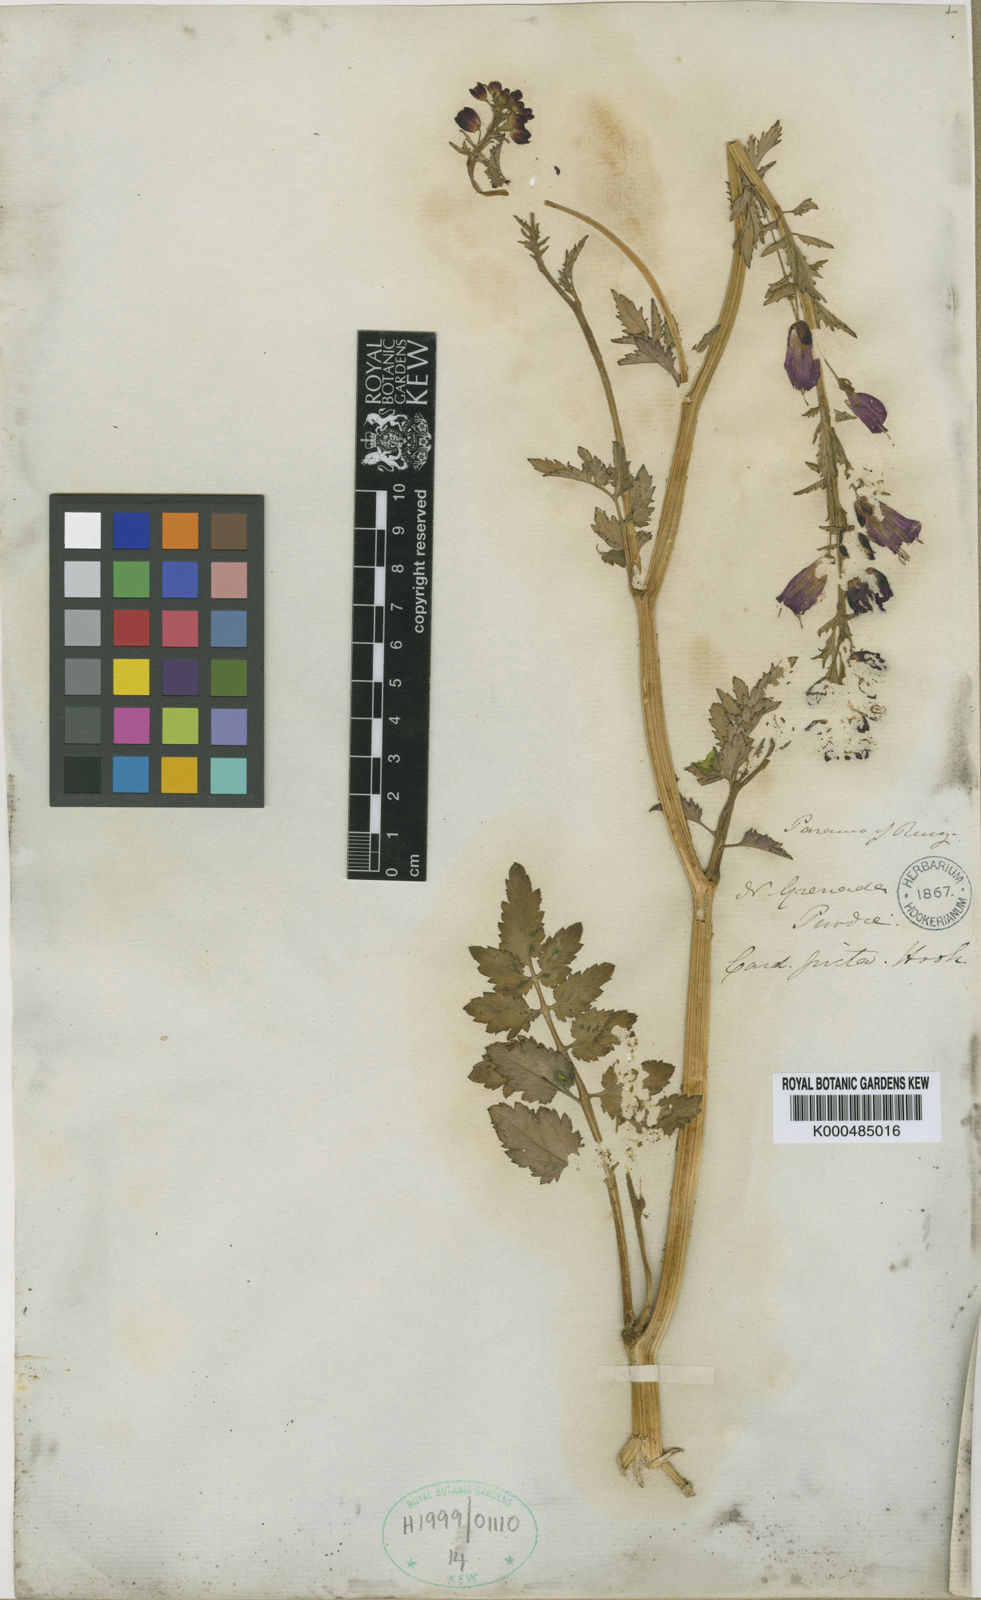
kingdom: Plantae
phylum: Tracheophyta
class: Magnoliopsida
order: Brassicales
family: Brassicaceae
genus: Cardamine
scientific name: Cardamine picta
